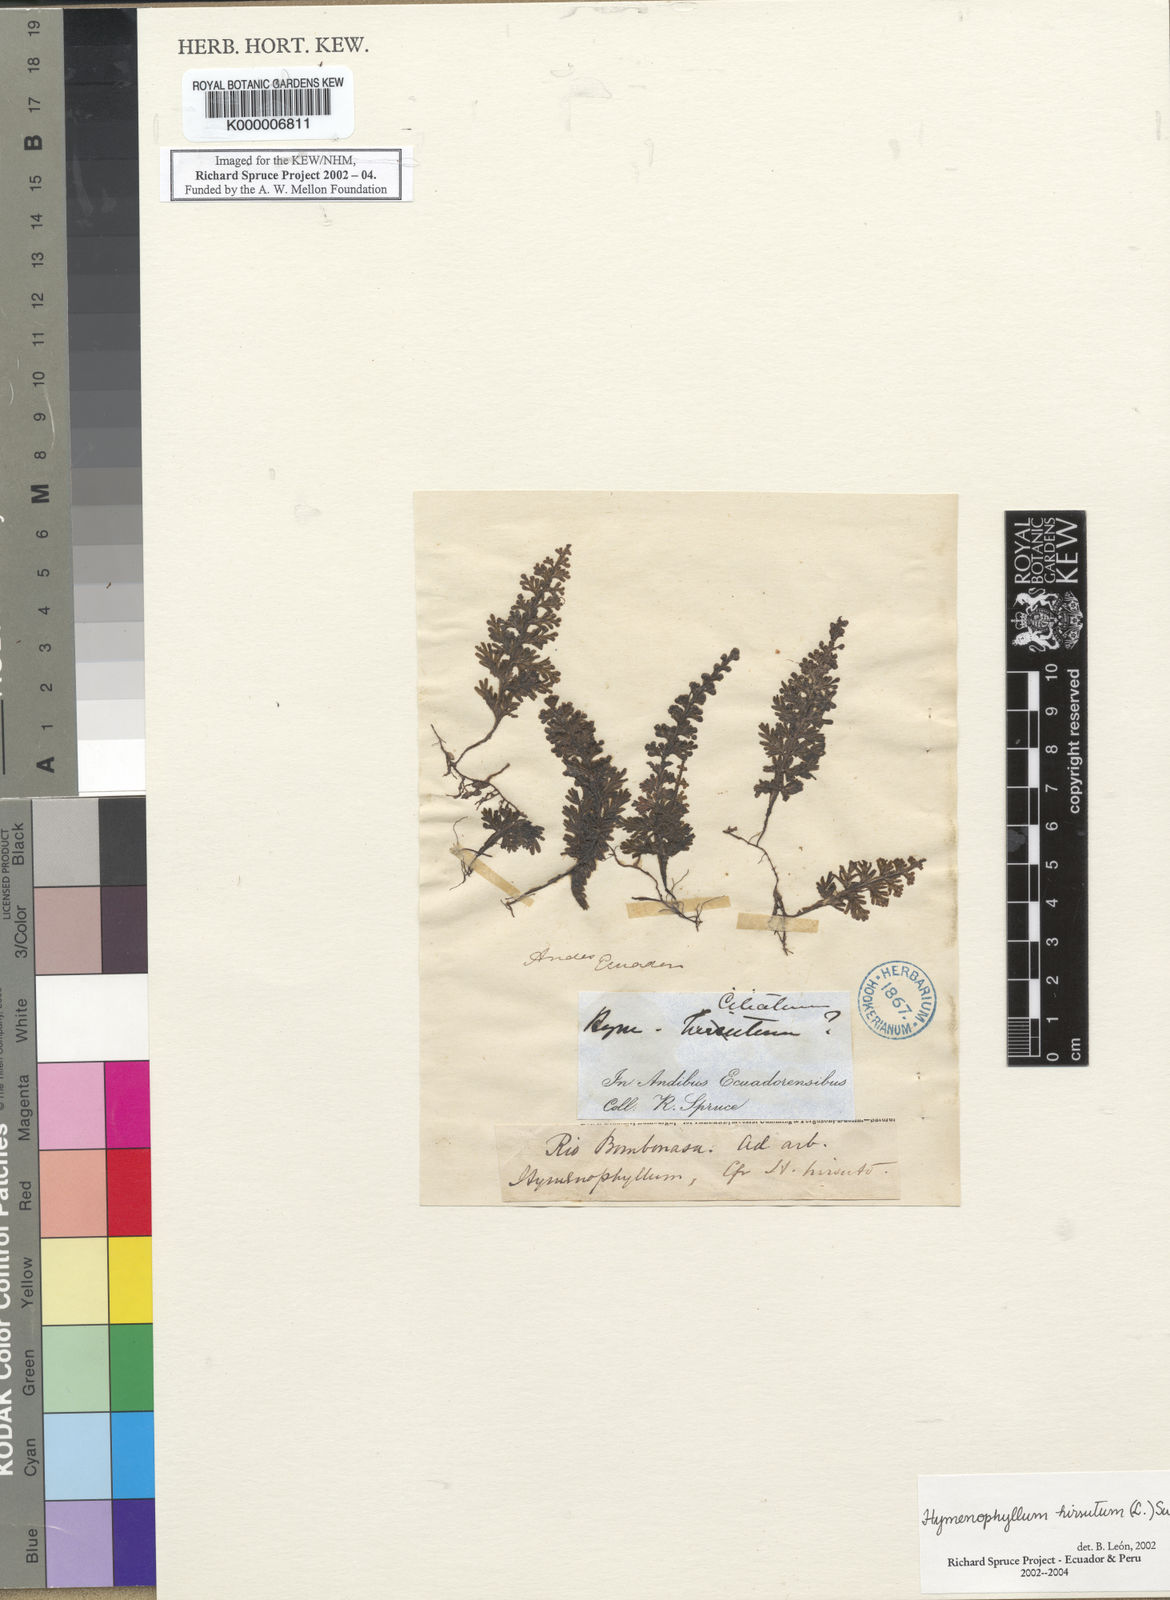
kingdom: Plantae
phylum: Tracheophyta
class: Polypodiopsida
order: Hymenophyllales
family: Hymenophyllaceae
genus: Hymenophyllum
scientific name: Hymenophyllum hirsutum
